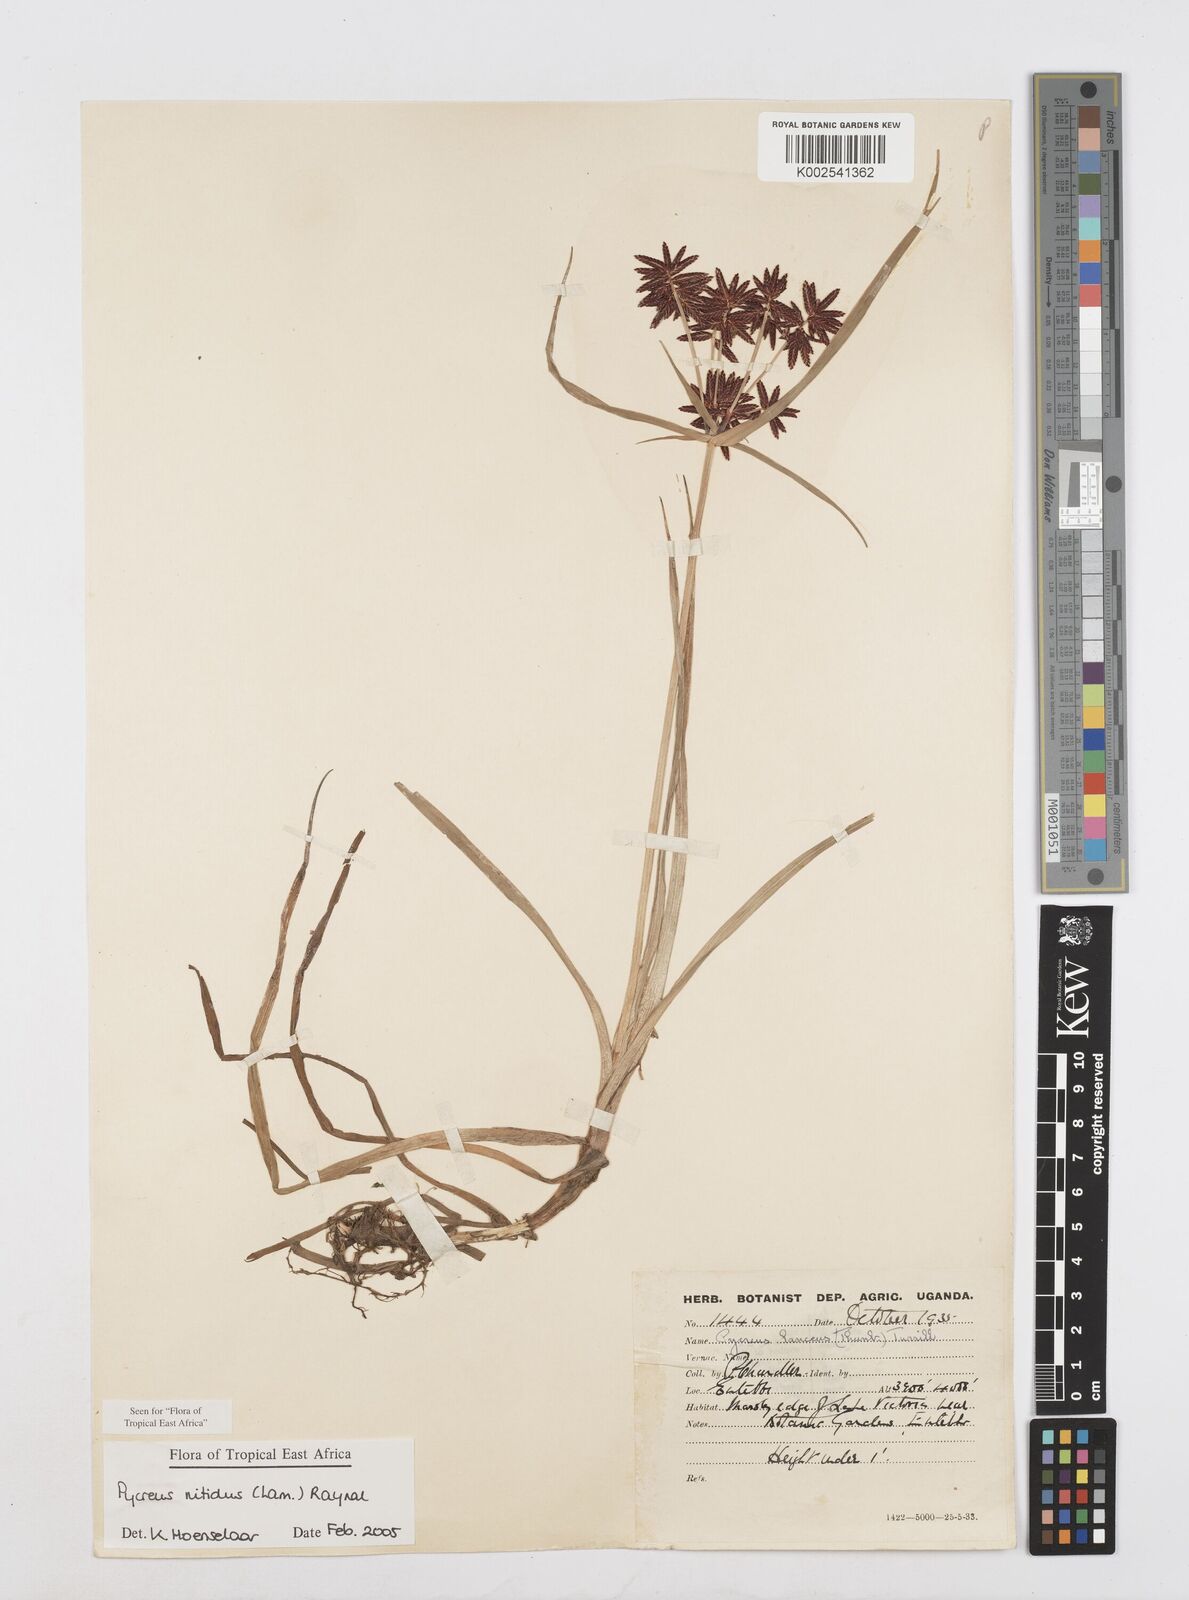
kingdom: Plantae
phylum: Tracheophyta
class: Liliopsida
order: Poales
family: Cyperaceae
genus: Cyperus
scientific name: Cyperus nitidus
